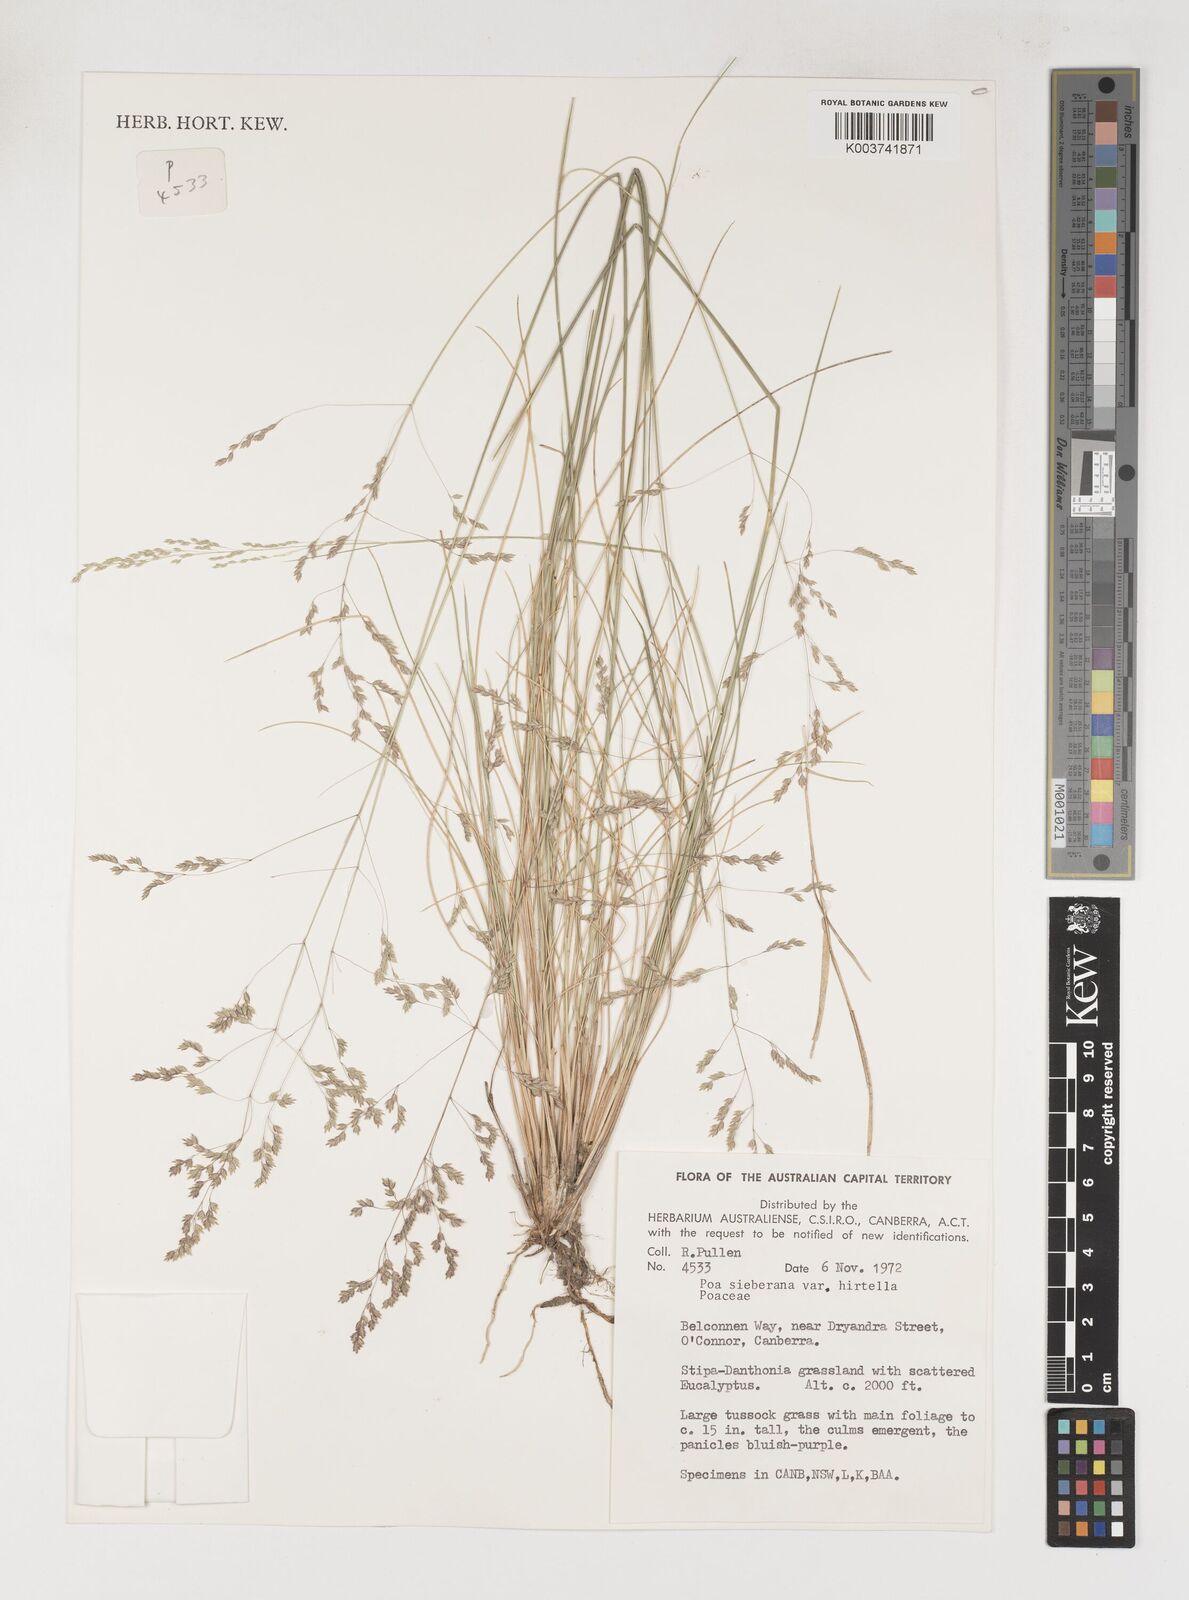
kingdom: Plantae
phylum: Tracheophyta
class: Liliopsida
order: Poales
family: Poaceae
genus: Poa
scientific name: Poa sieberiana
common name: Tussock poa
